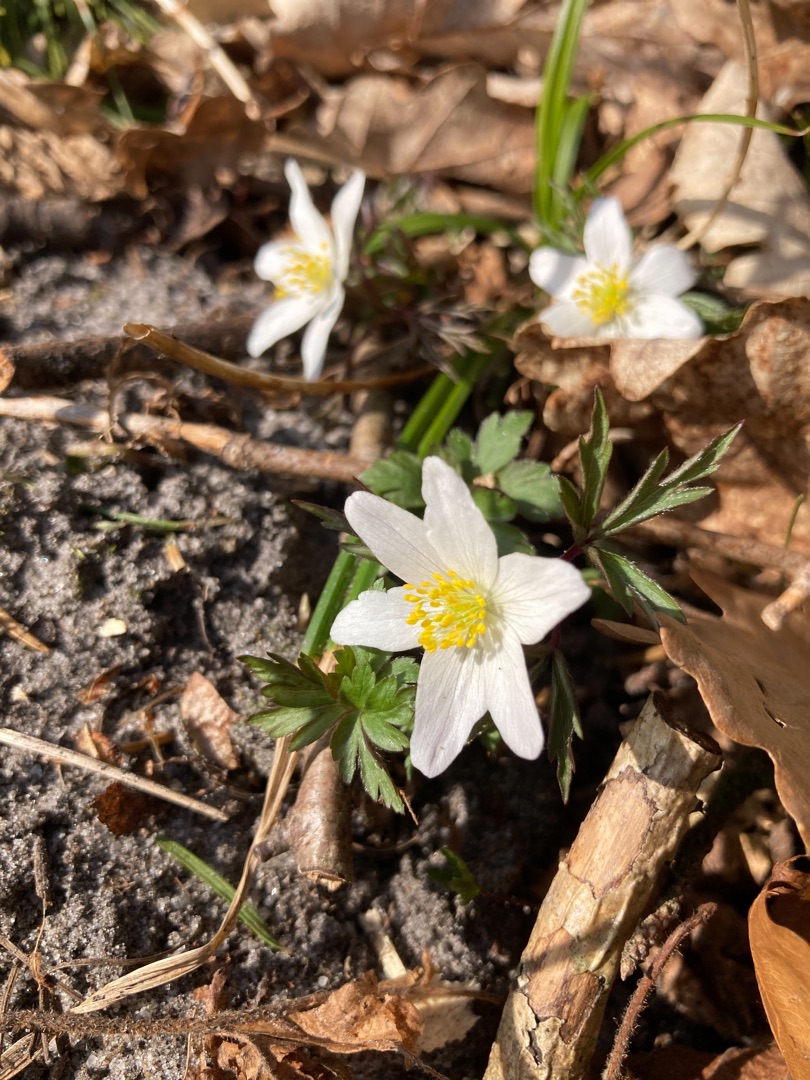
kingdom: Plantae
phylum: Tracheophyta
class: Magnoliopsida
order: Ranunculales
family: Ranunculaceae
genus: Anemone
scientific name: Anemone nemorosa
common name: Hvid anemone
